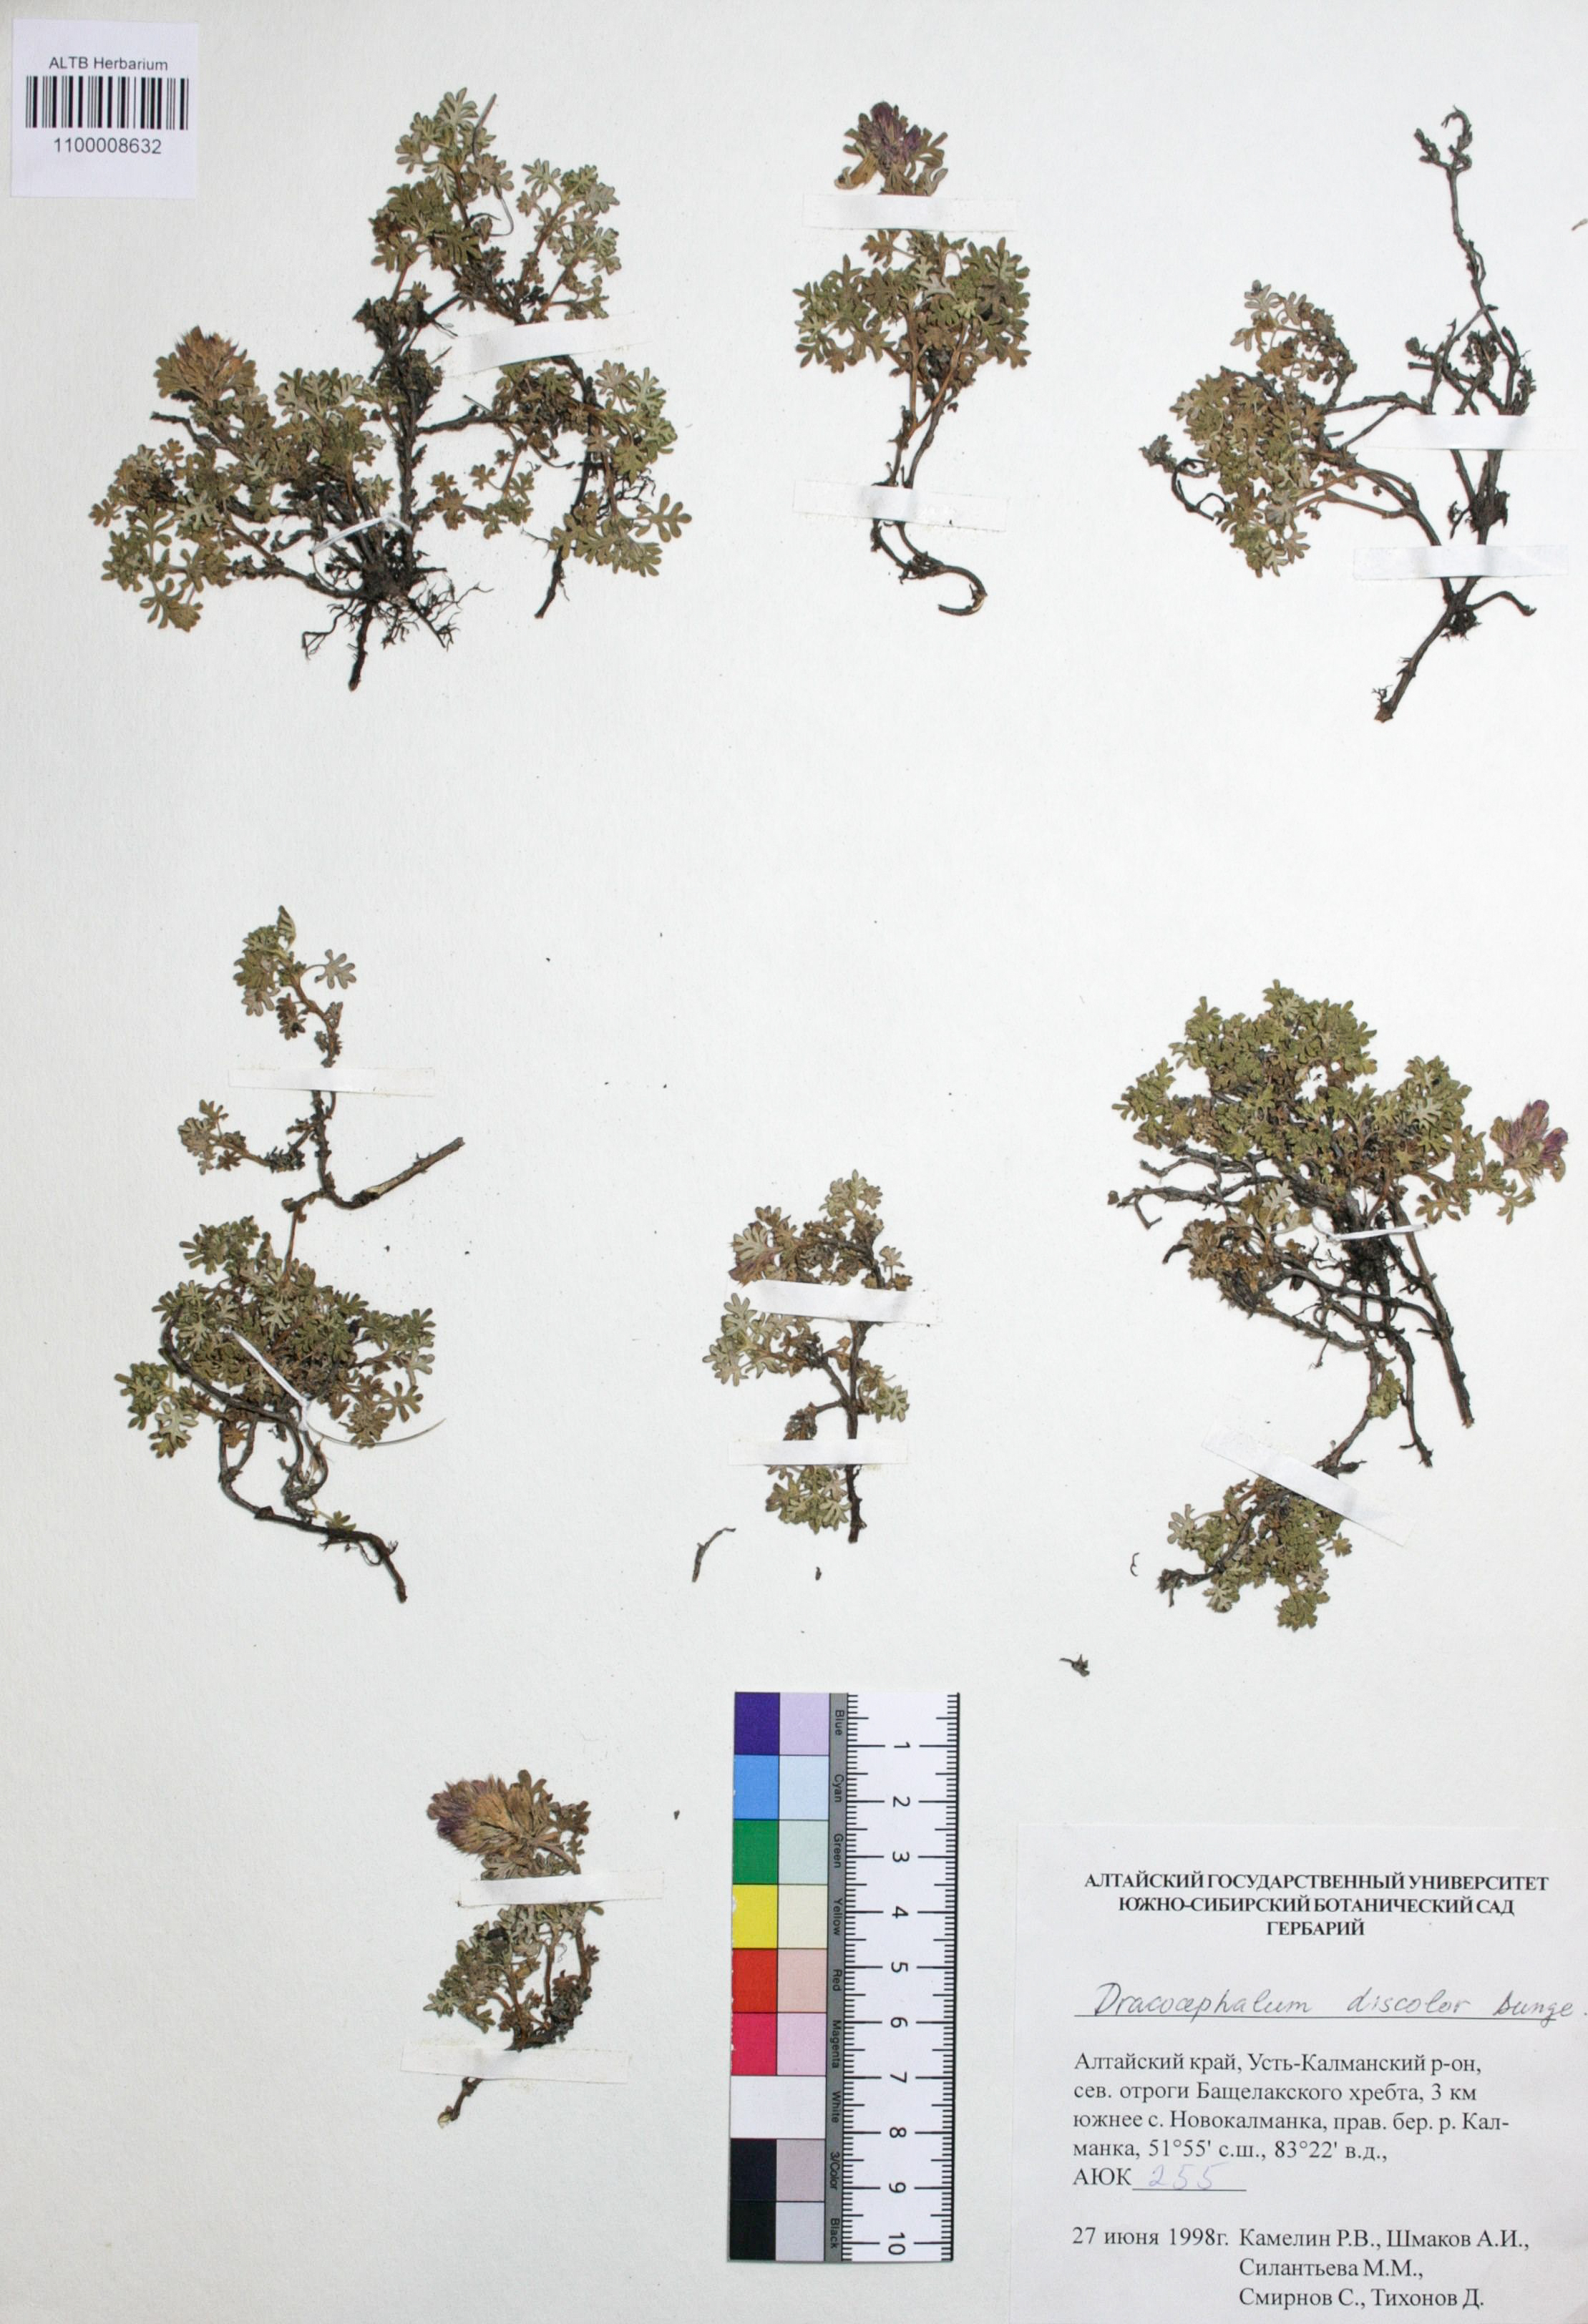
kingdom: Plantae
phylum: Tracheophyta
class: Magnoliopsida
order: Lamiales
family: Lamiaceae
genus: Dracocephalum
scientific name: Dracocephalum discolor
